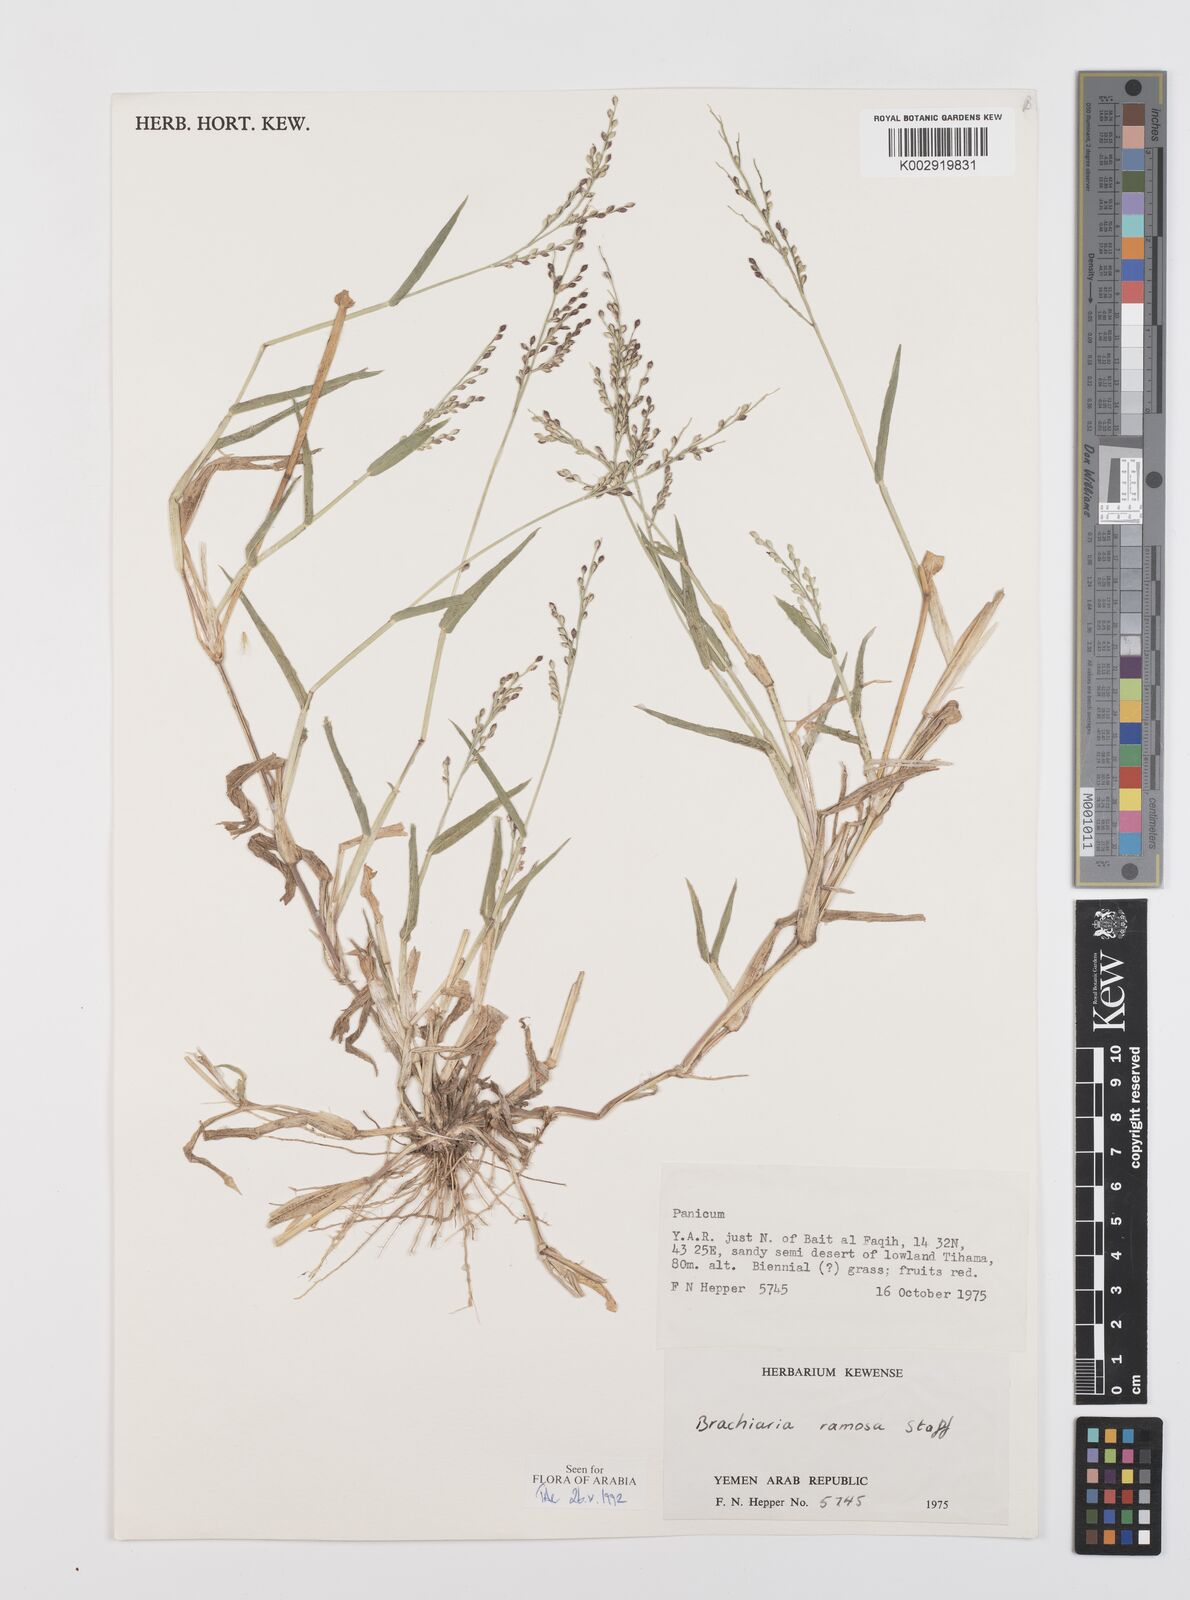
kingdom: Plantae
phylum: Tracheophyta
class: Liliopsida
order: Poales
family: Poaceae
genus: Urochloa
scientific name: Urochloa ramosa
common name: Browntop millet
